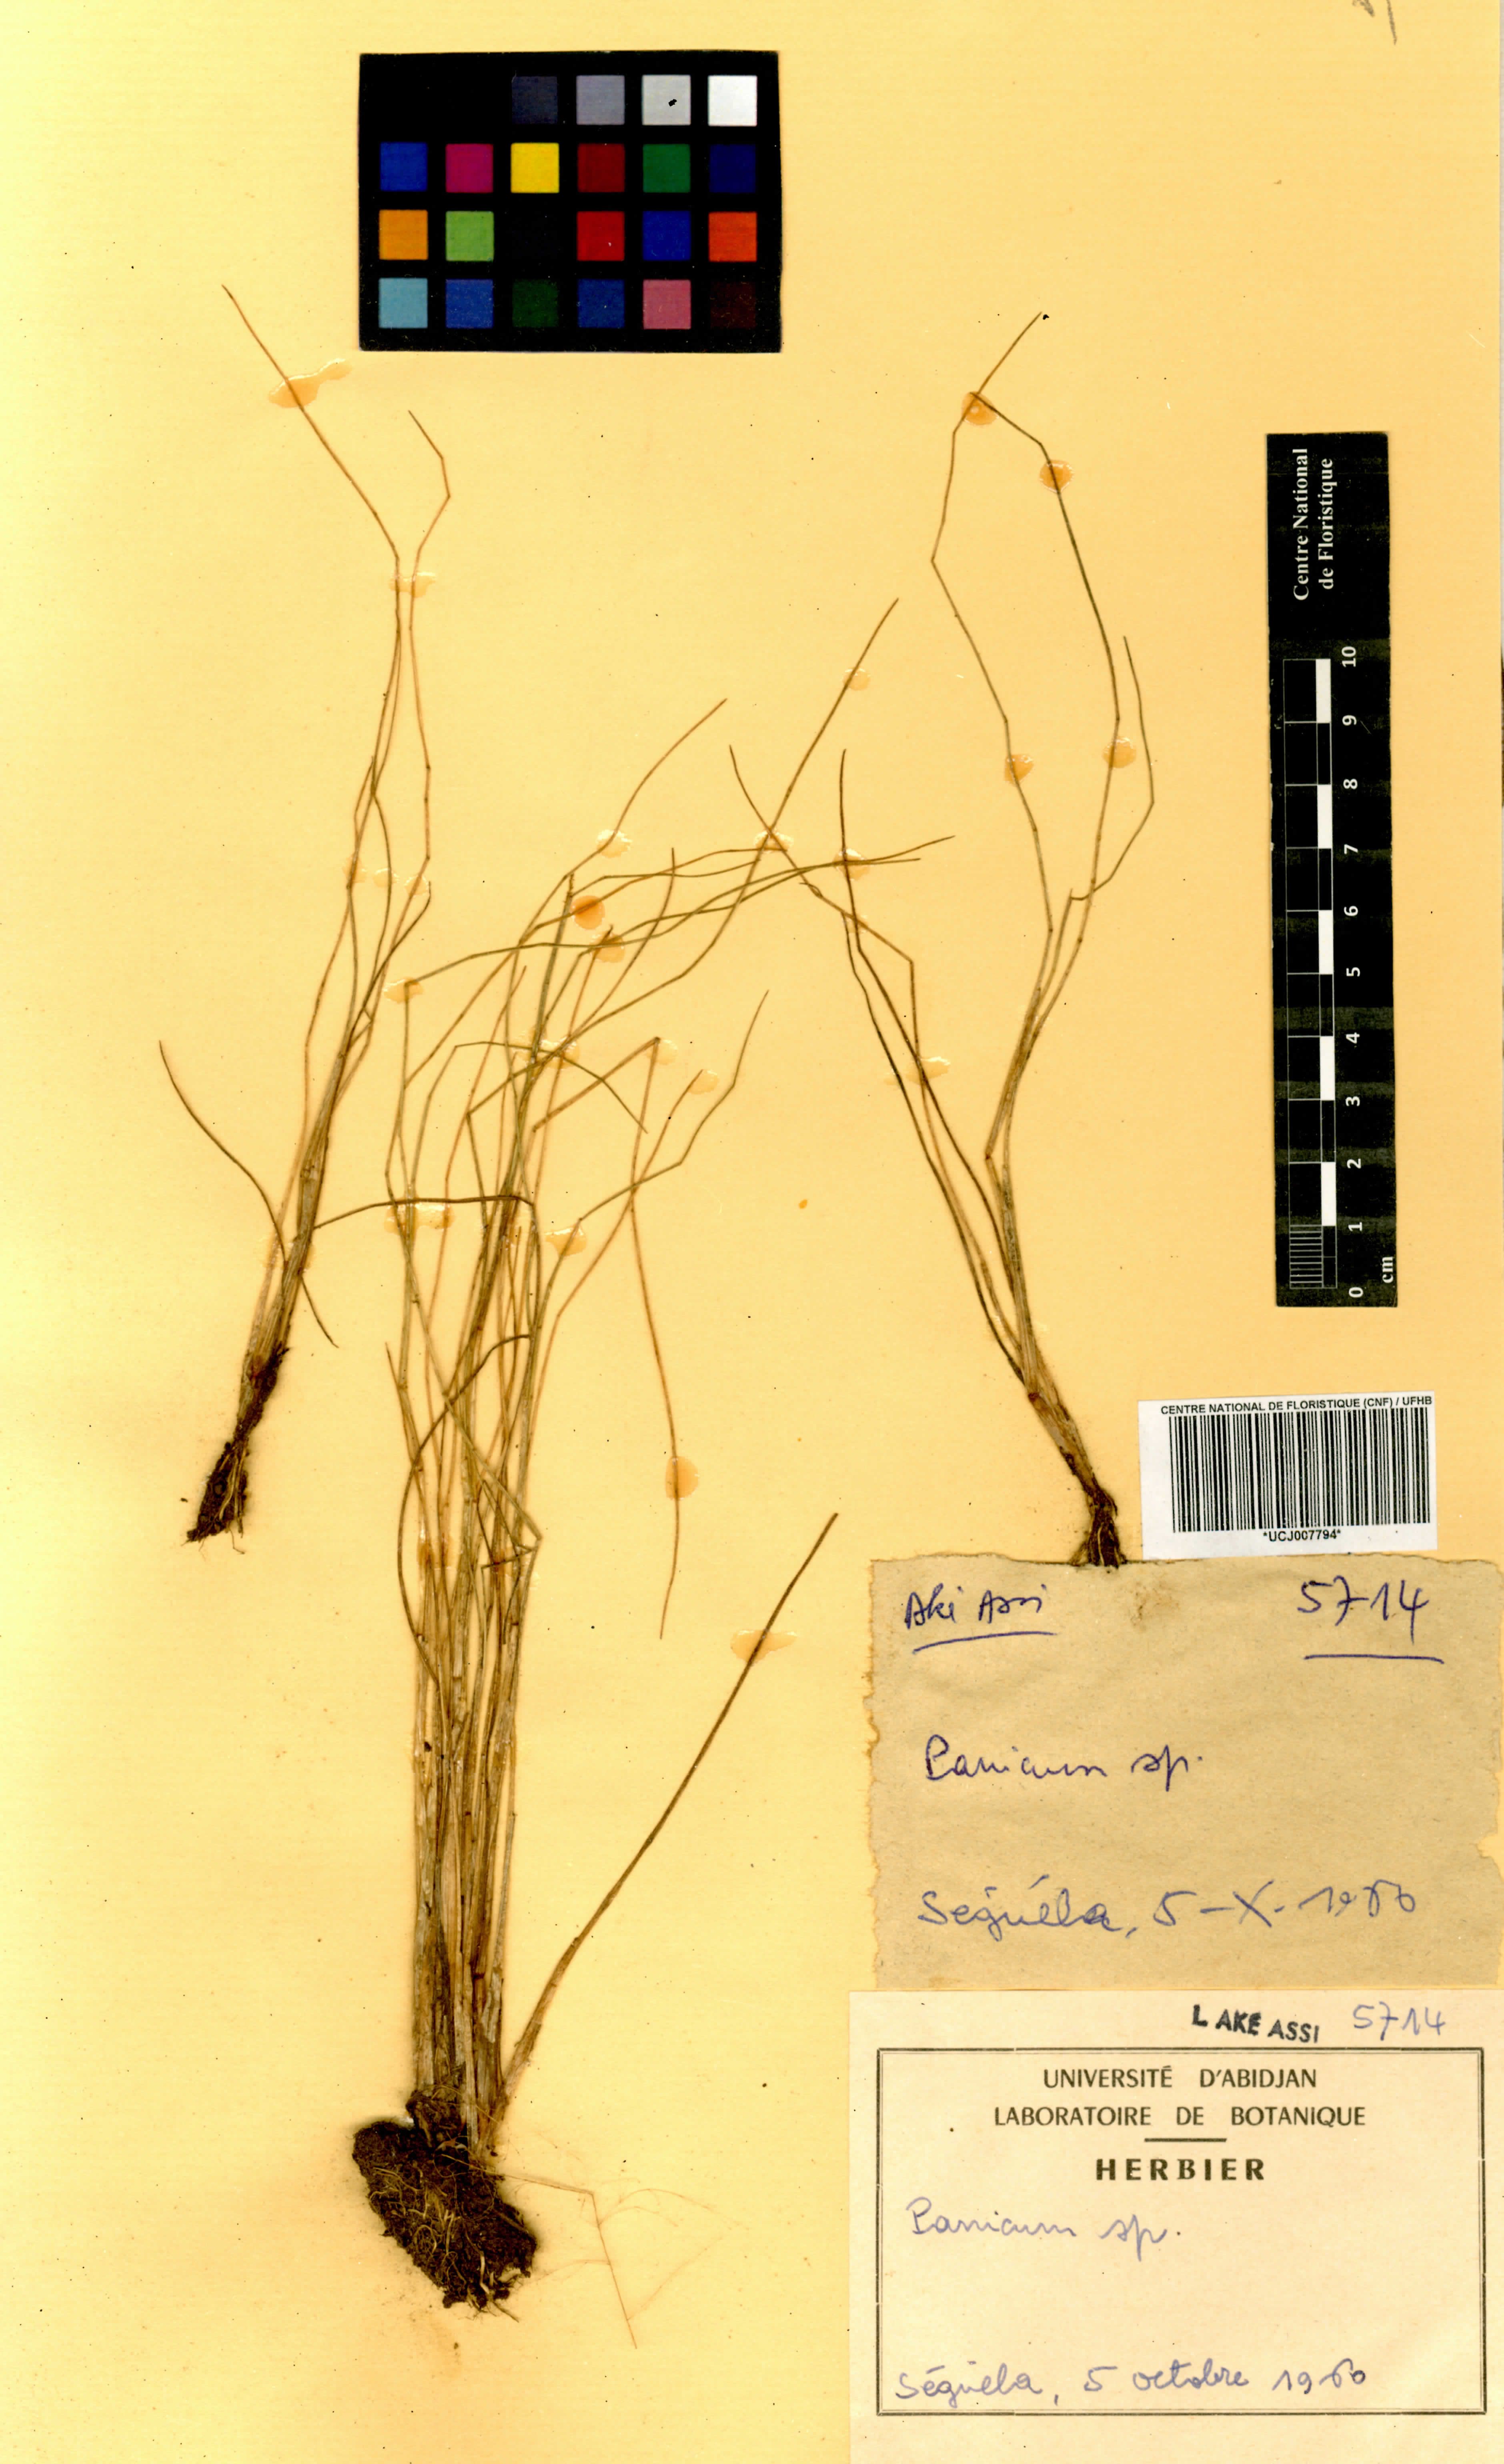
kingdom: Plantae
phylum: Tracheophyta
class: Liliopsida
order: Poales
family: Poaceae
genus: Panicum
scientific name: Panicum
